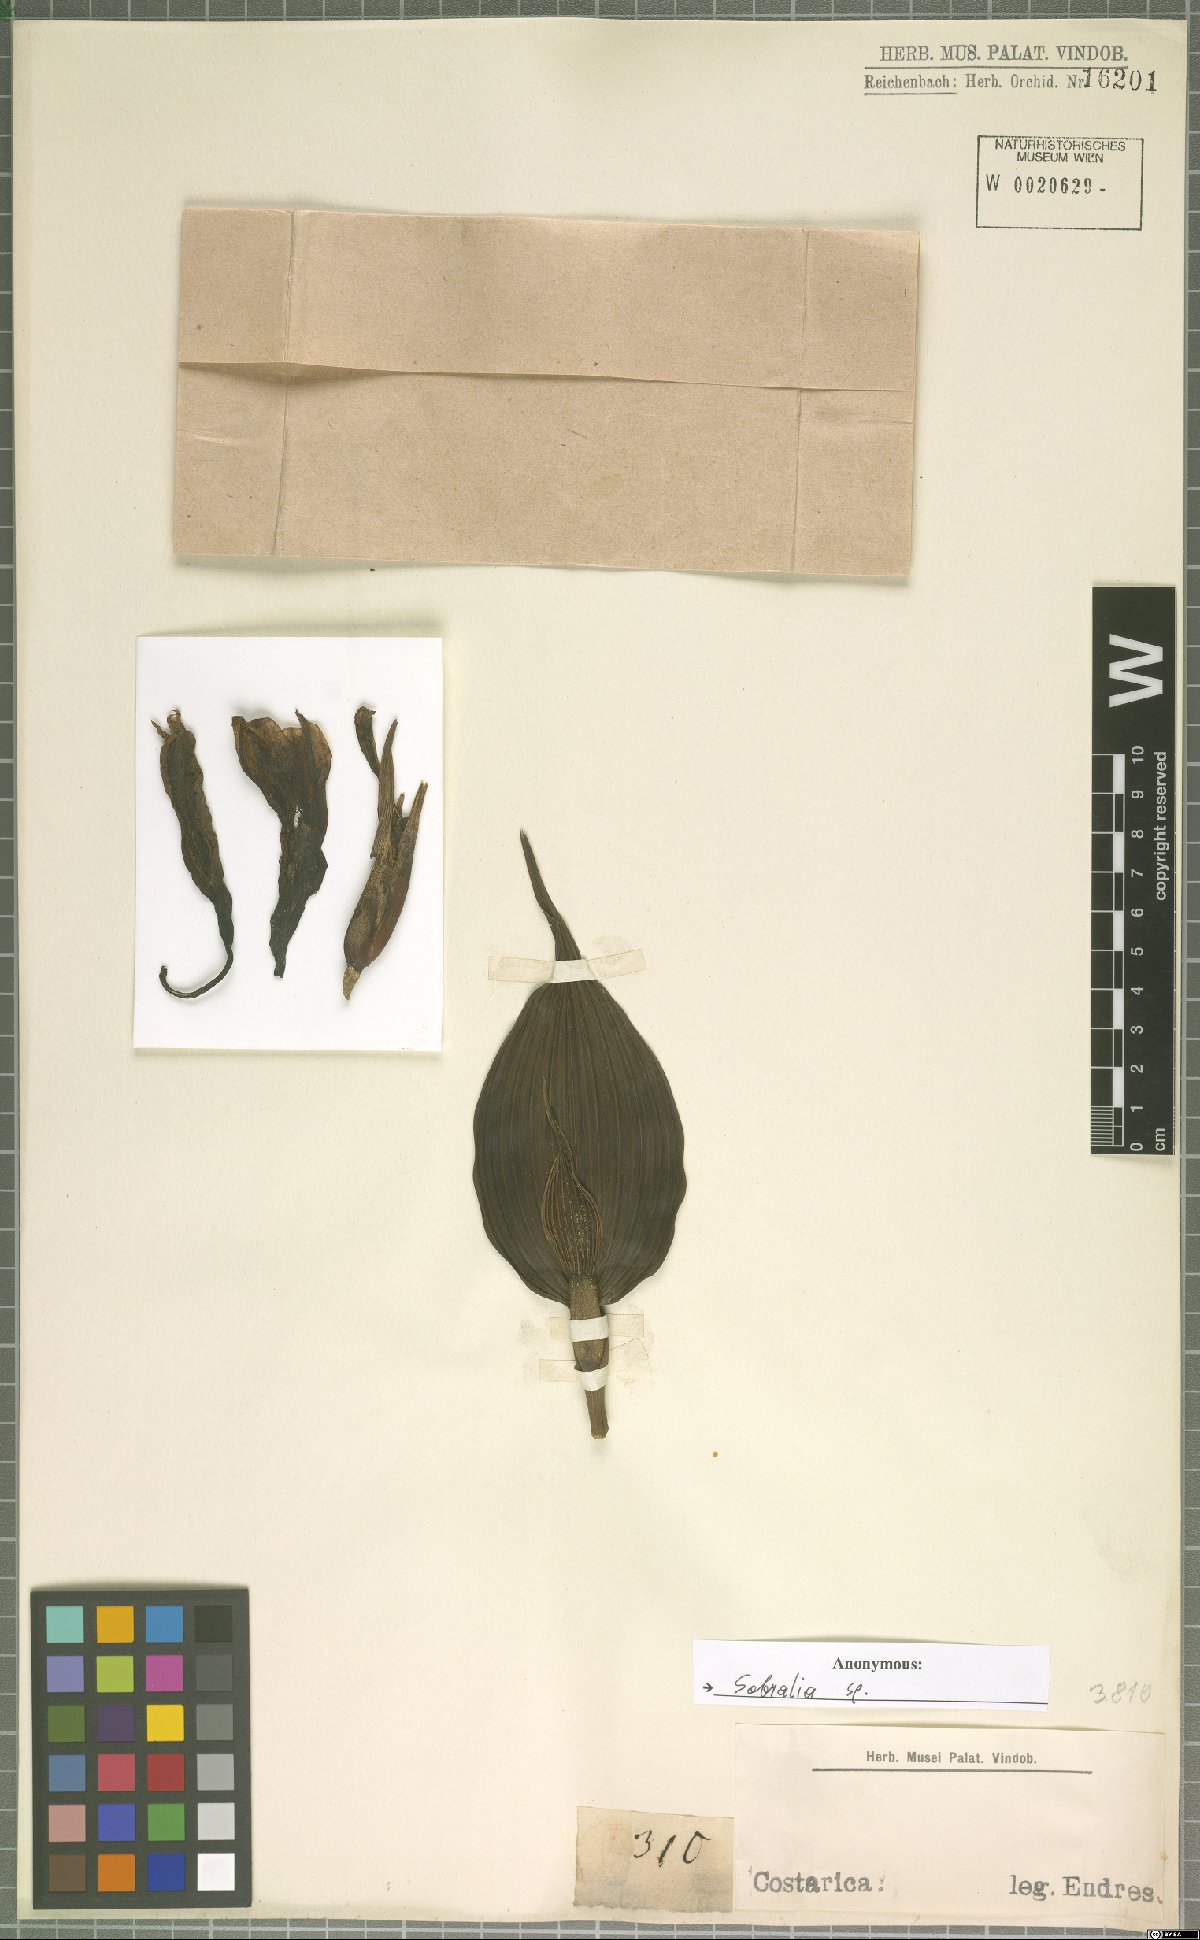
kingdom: Plantae
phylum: Tracheophyta
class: Liliopsida
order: Asparagales
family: Orchidaceae
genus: Sobralia
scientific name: Sobralia
